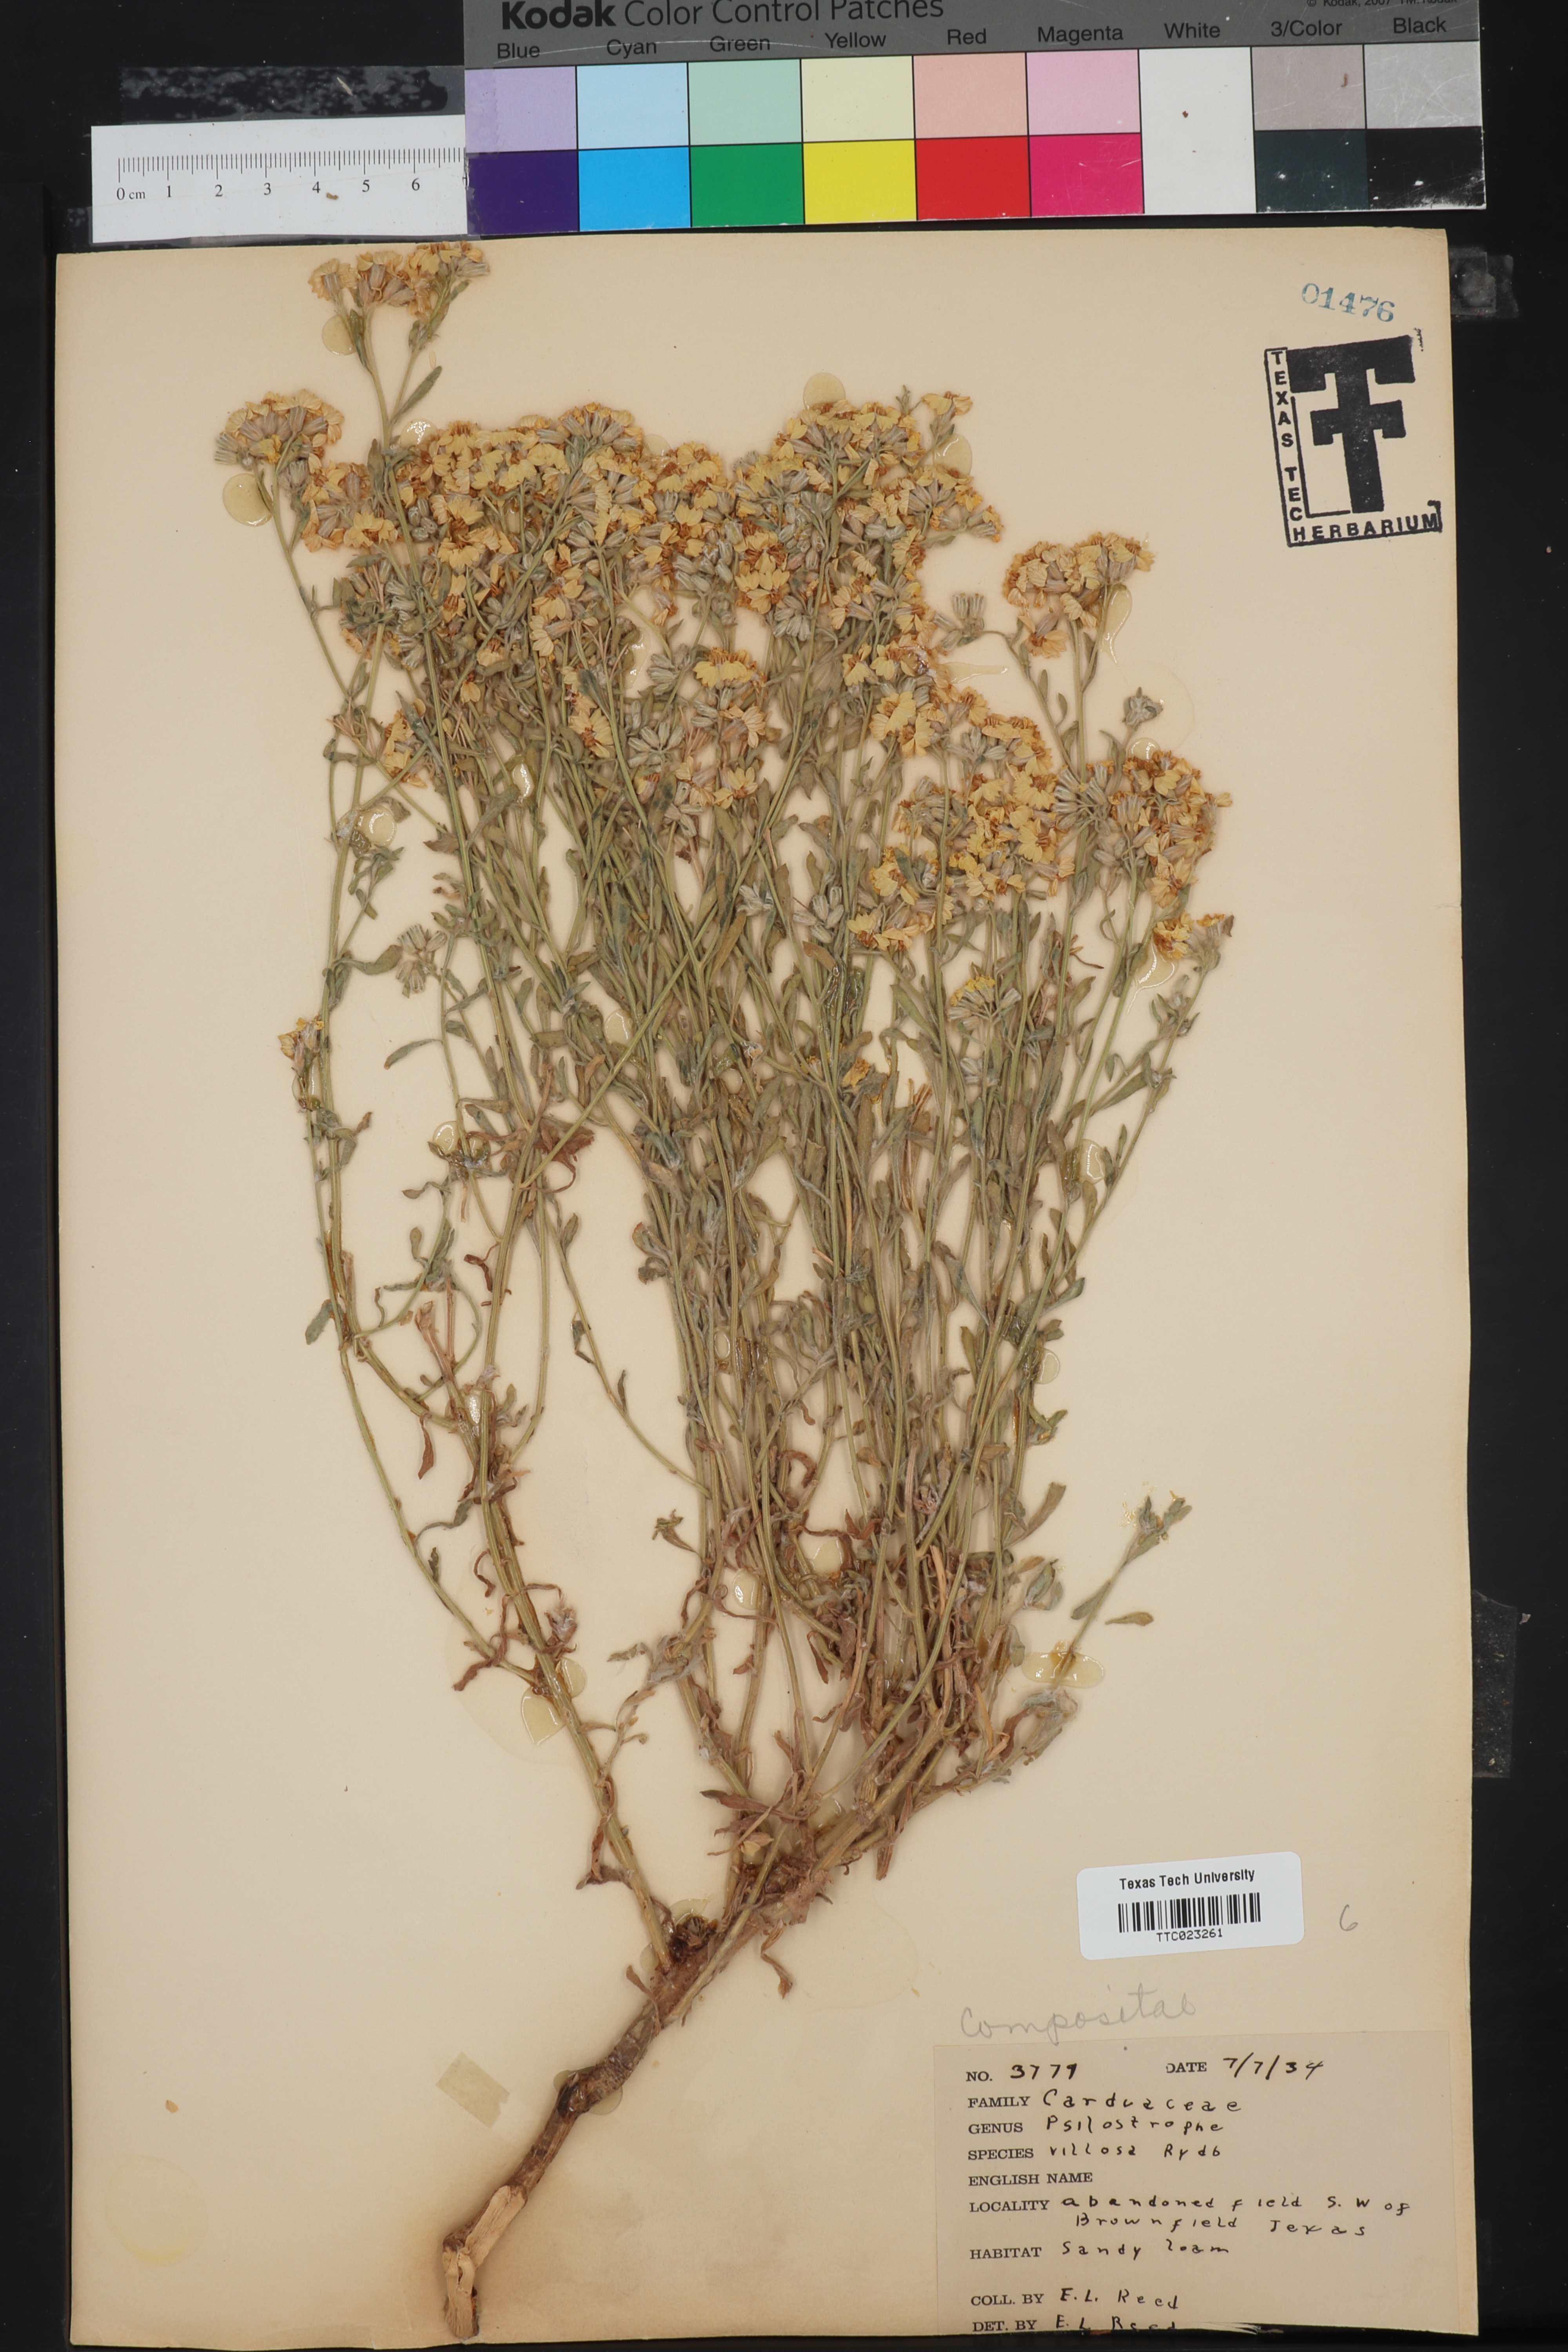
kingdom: Plantae
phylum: Tracheophyta
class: Magnoliopsida
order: Asterales
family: Asteraceae
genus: Psilostrophe
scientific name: Psilostrophe villosa
